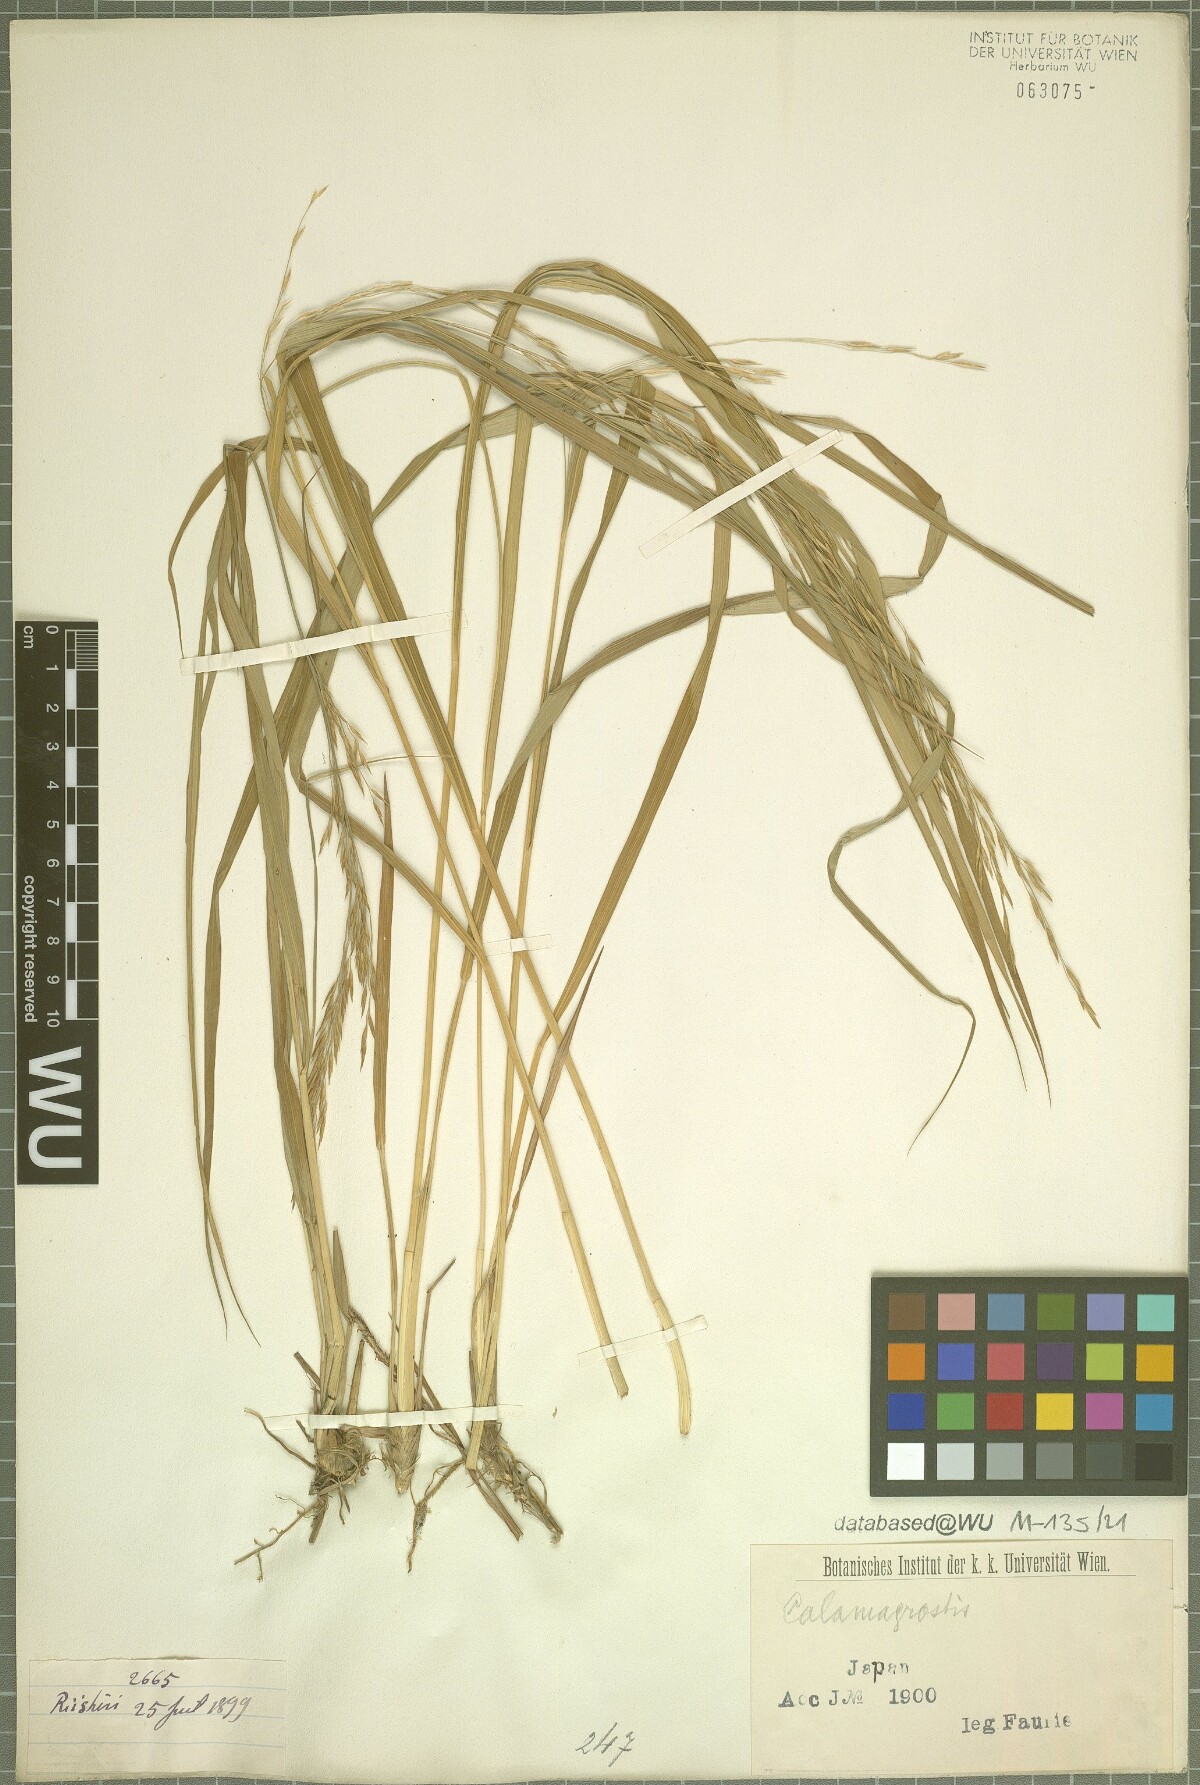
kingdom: Plantae
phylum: Tracheophyta
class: Liliopsida
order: Poales
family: Poaceae
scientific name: Poaceae
